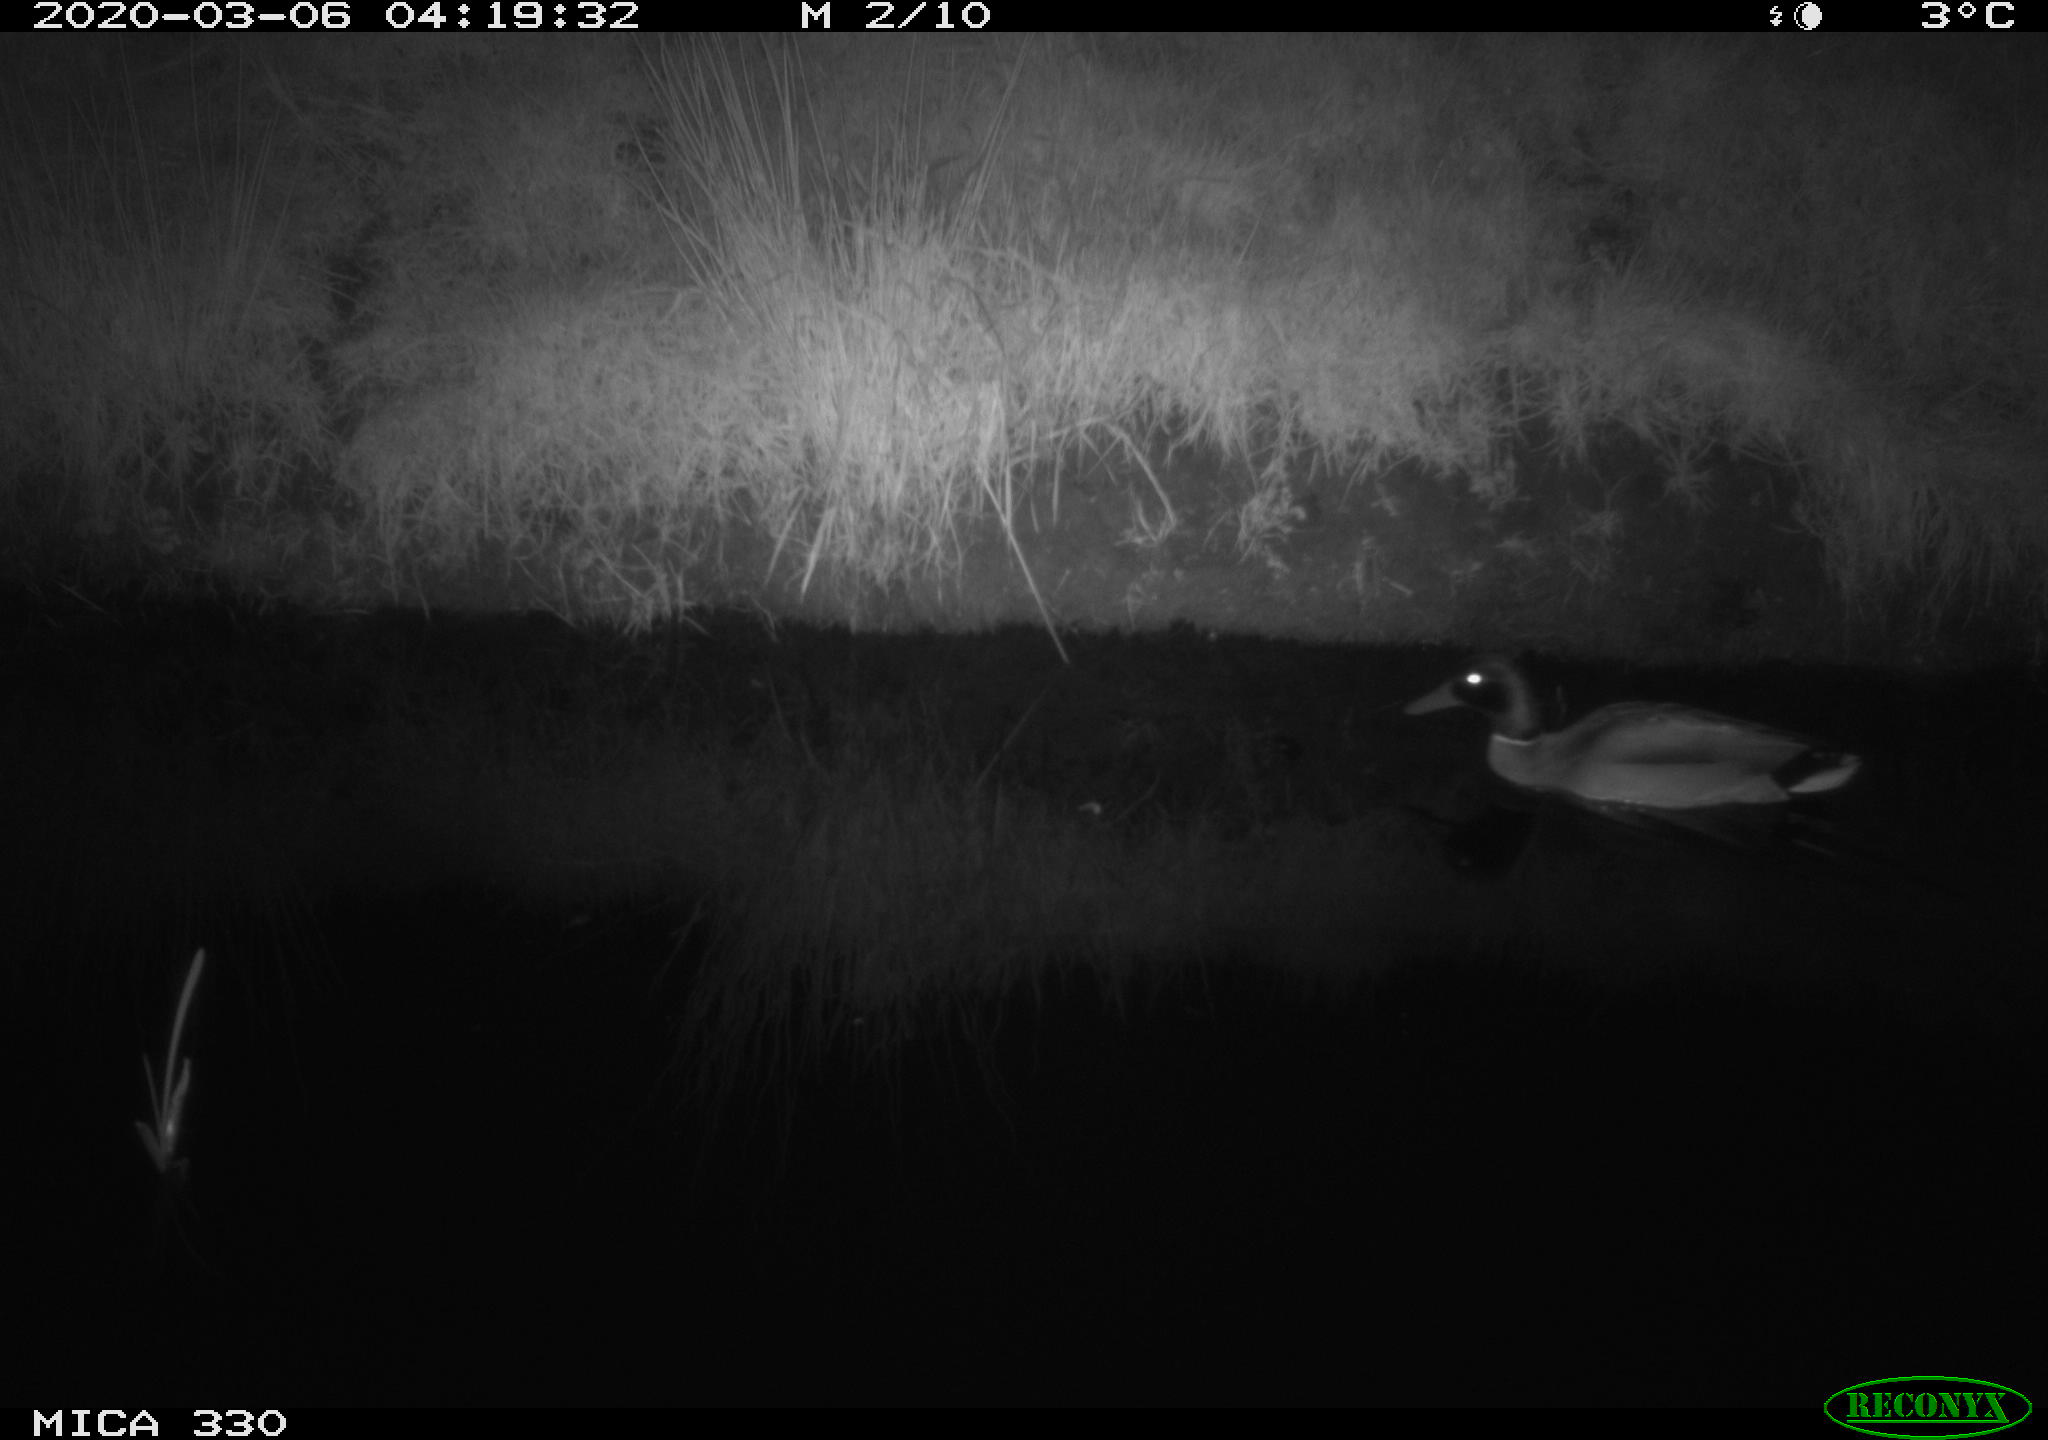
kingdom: Animalia
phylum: Chordata
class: Aves
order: Anseriformes
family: Anatidae
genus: Anas
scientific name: Anas platyrhynchos
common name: Mallard
